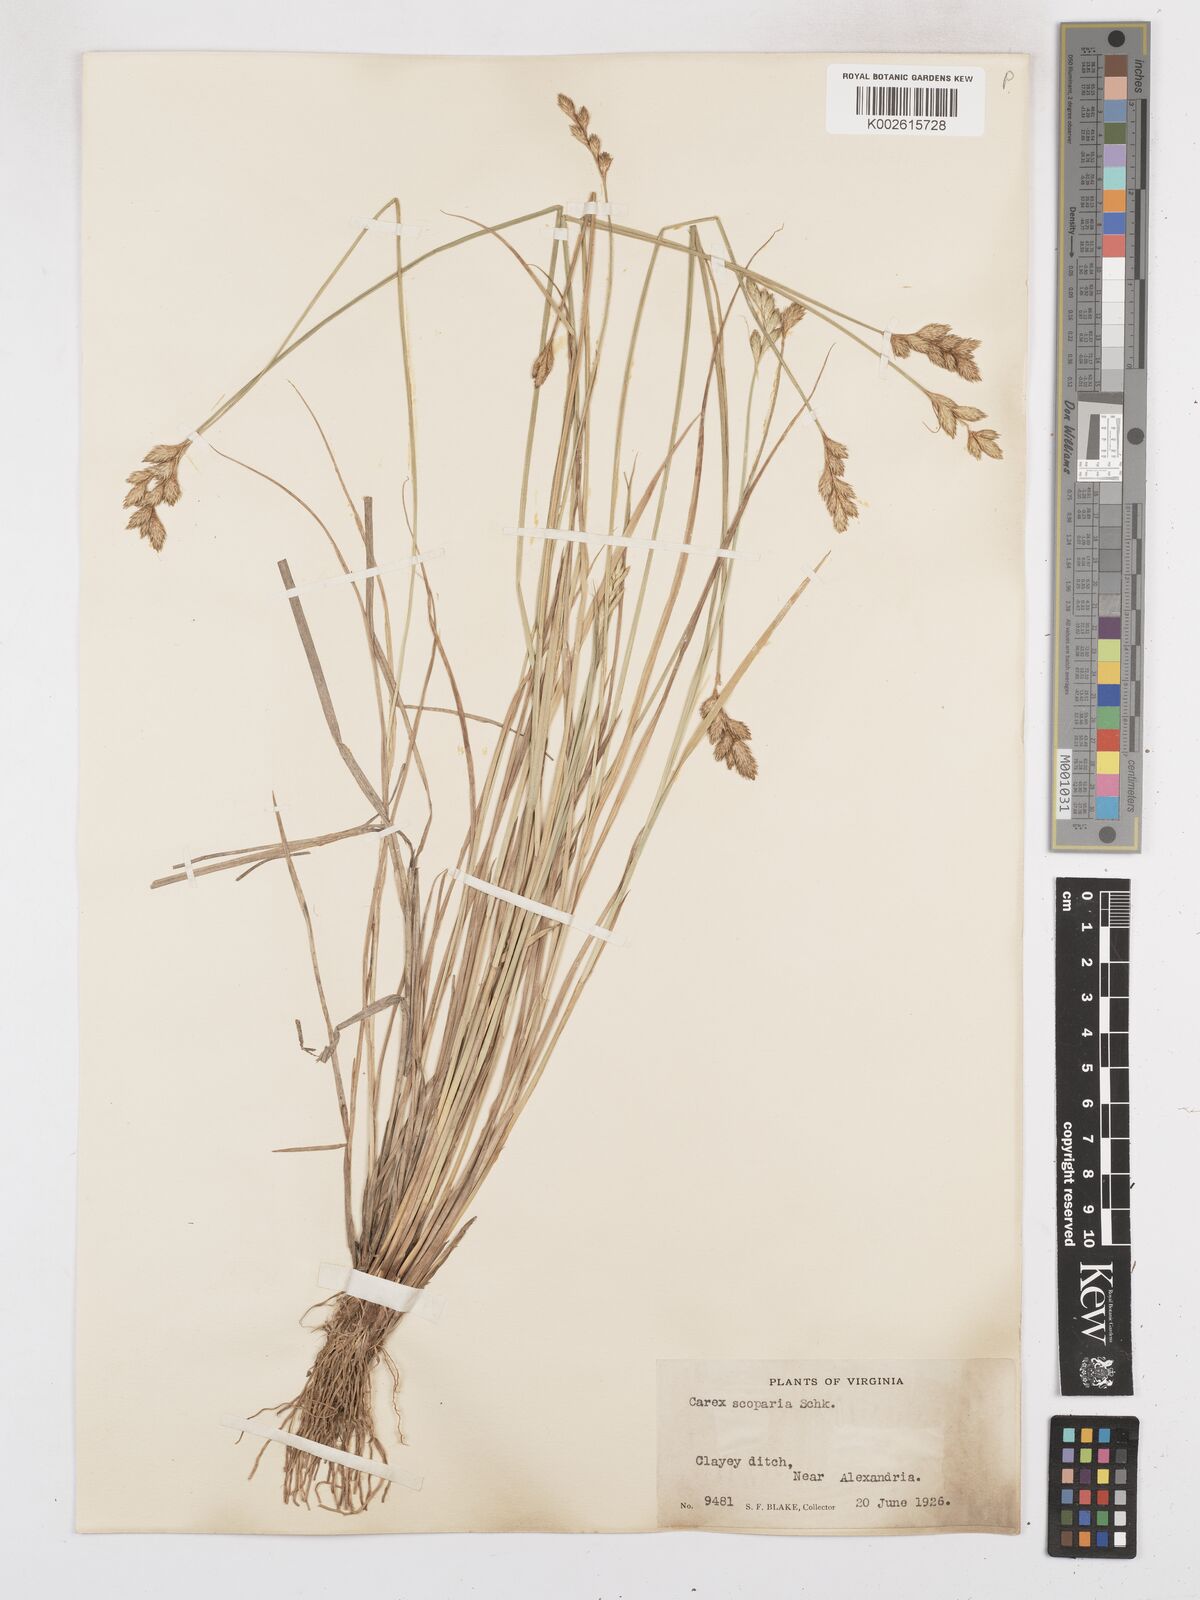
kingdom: Plantae
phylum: Tracheophyta
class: Liliopsida
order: Poales
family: Cyperaceae
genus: Carex
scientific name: Carex leporina
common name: Oval sedge
